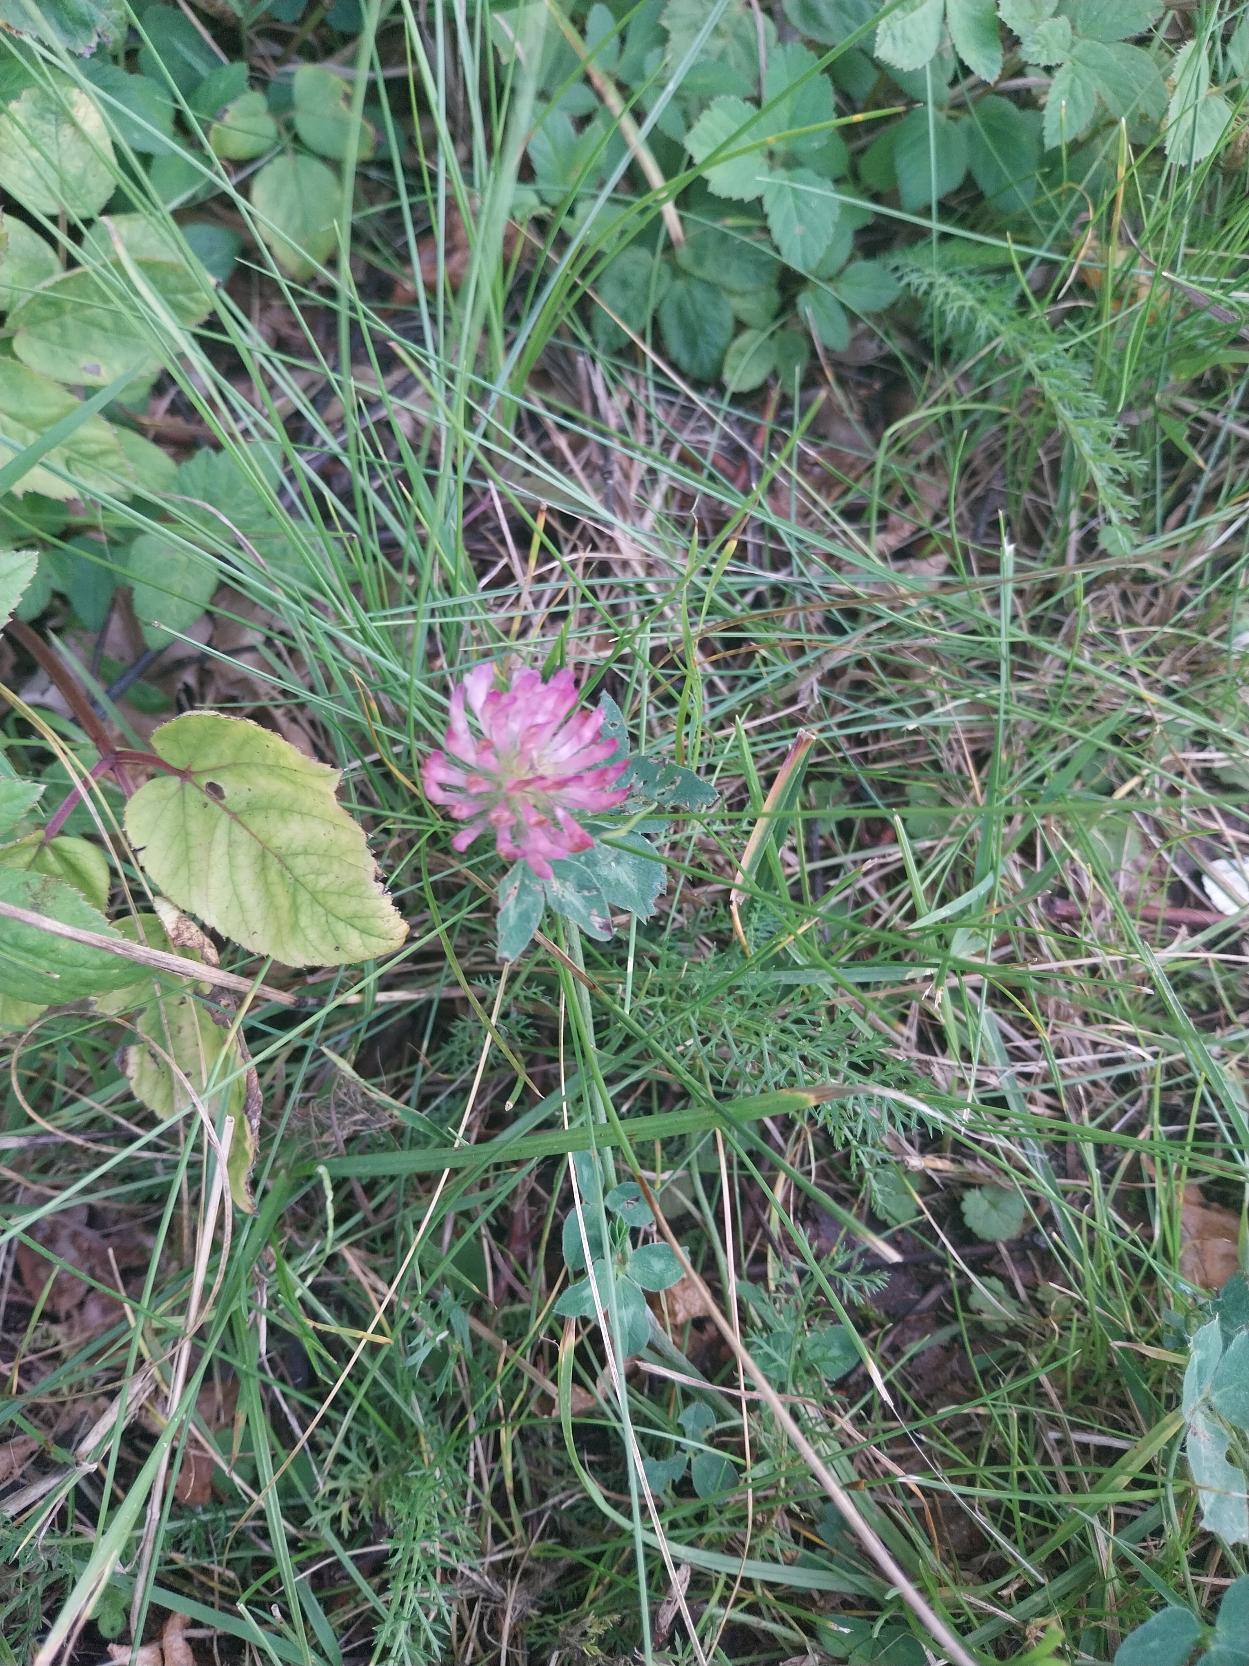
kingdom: Plantae
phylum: Tracheophyta
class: Magnoliopsida
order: Fabales
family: Fabaceae
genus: Trifolium
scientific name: Trifolium pratense
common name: Rød-kløver
